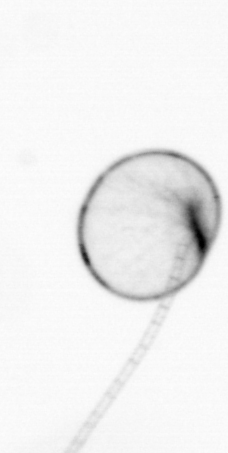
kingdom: Chromista
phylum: Myzozoa
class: Dinophyceae
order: Noctilucales
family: Noctilucaceae
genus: Noctiluca
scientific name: Noctiluca scintillans
